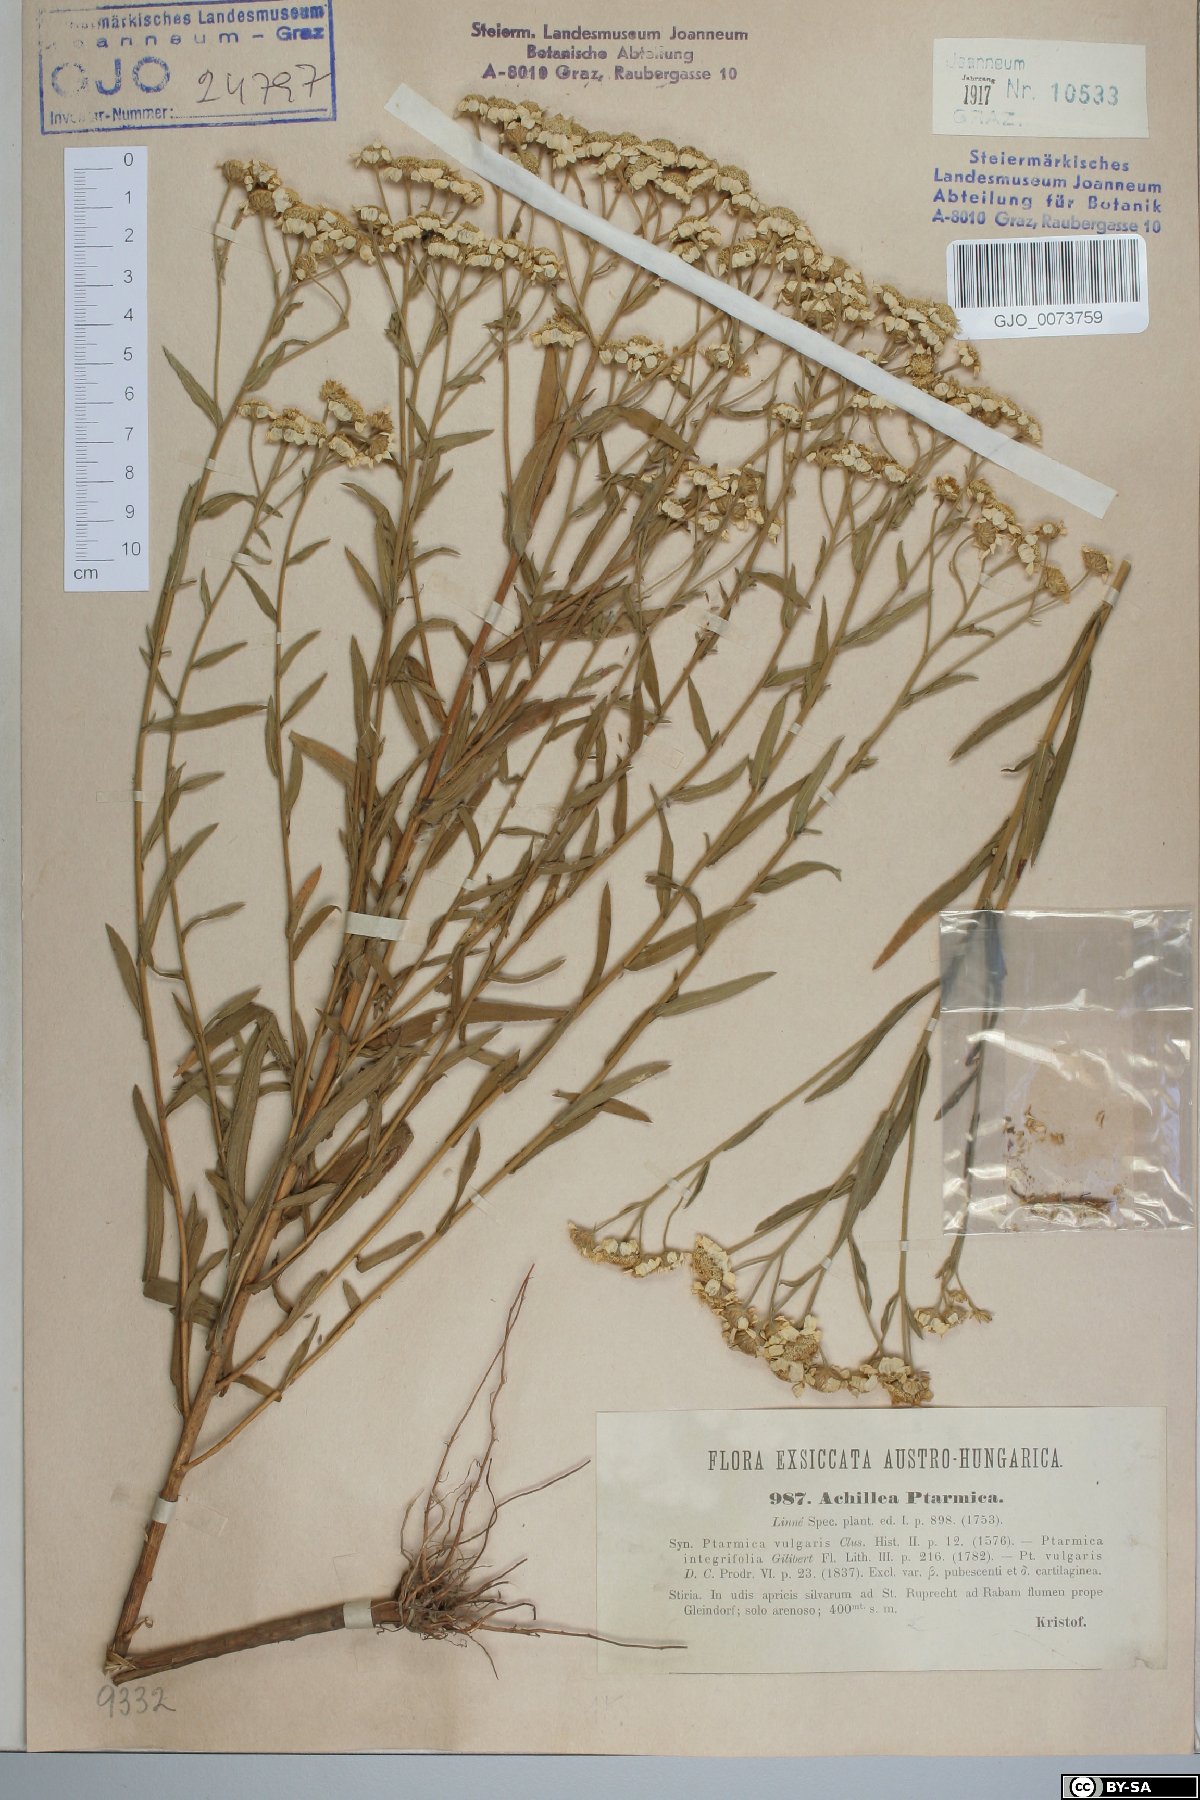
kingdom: Plantae
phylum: Tracheophyta
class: Magnoliopsida
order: Asterales
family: Asteraceae
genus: Achillea
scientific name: Achillea ptarmica
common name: Sneezeweed
